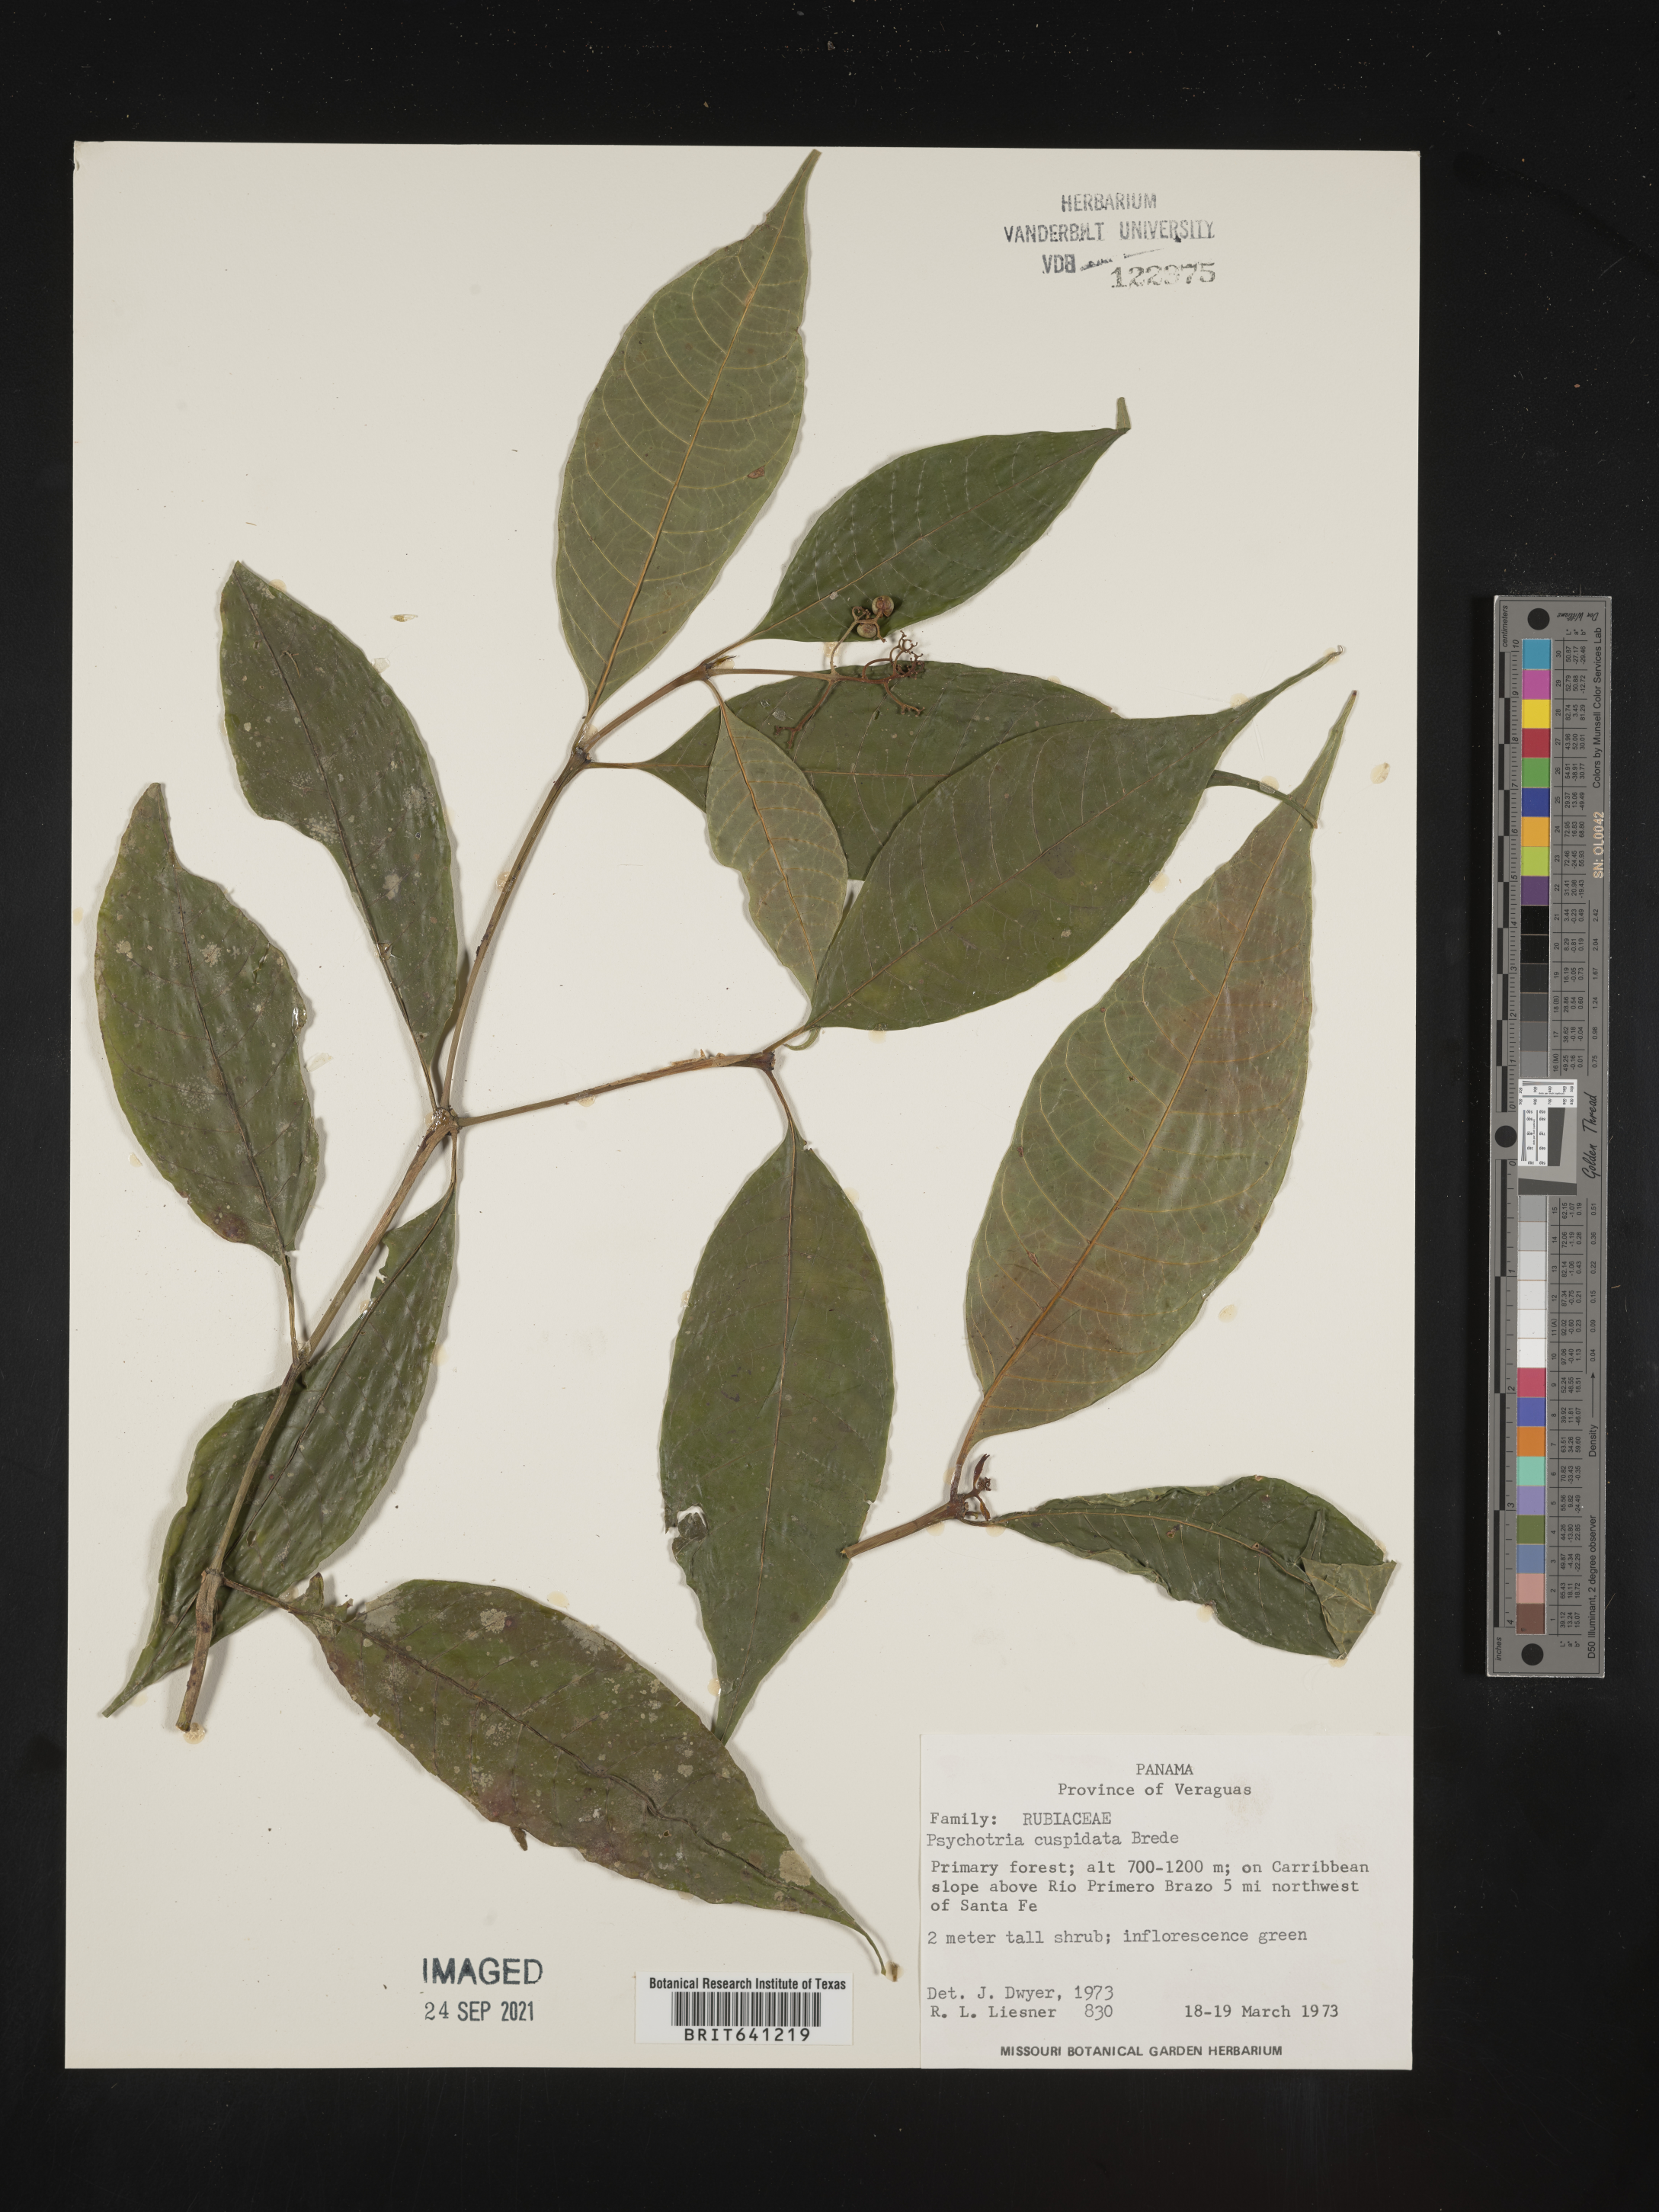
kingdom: Plantae
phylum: Tracheophyta
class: Magnoliopsida
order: Gentianales
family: Rubiaceae
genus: Psychotria
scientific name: Psychotria
